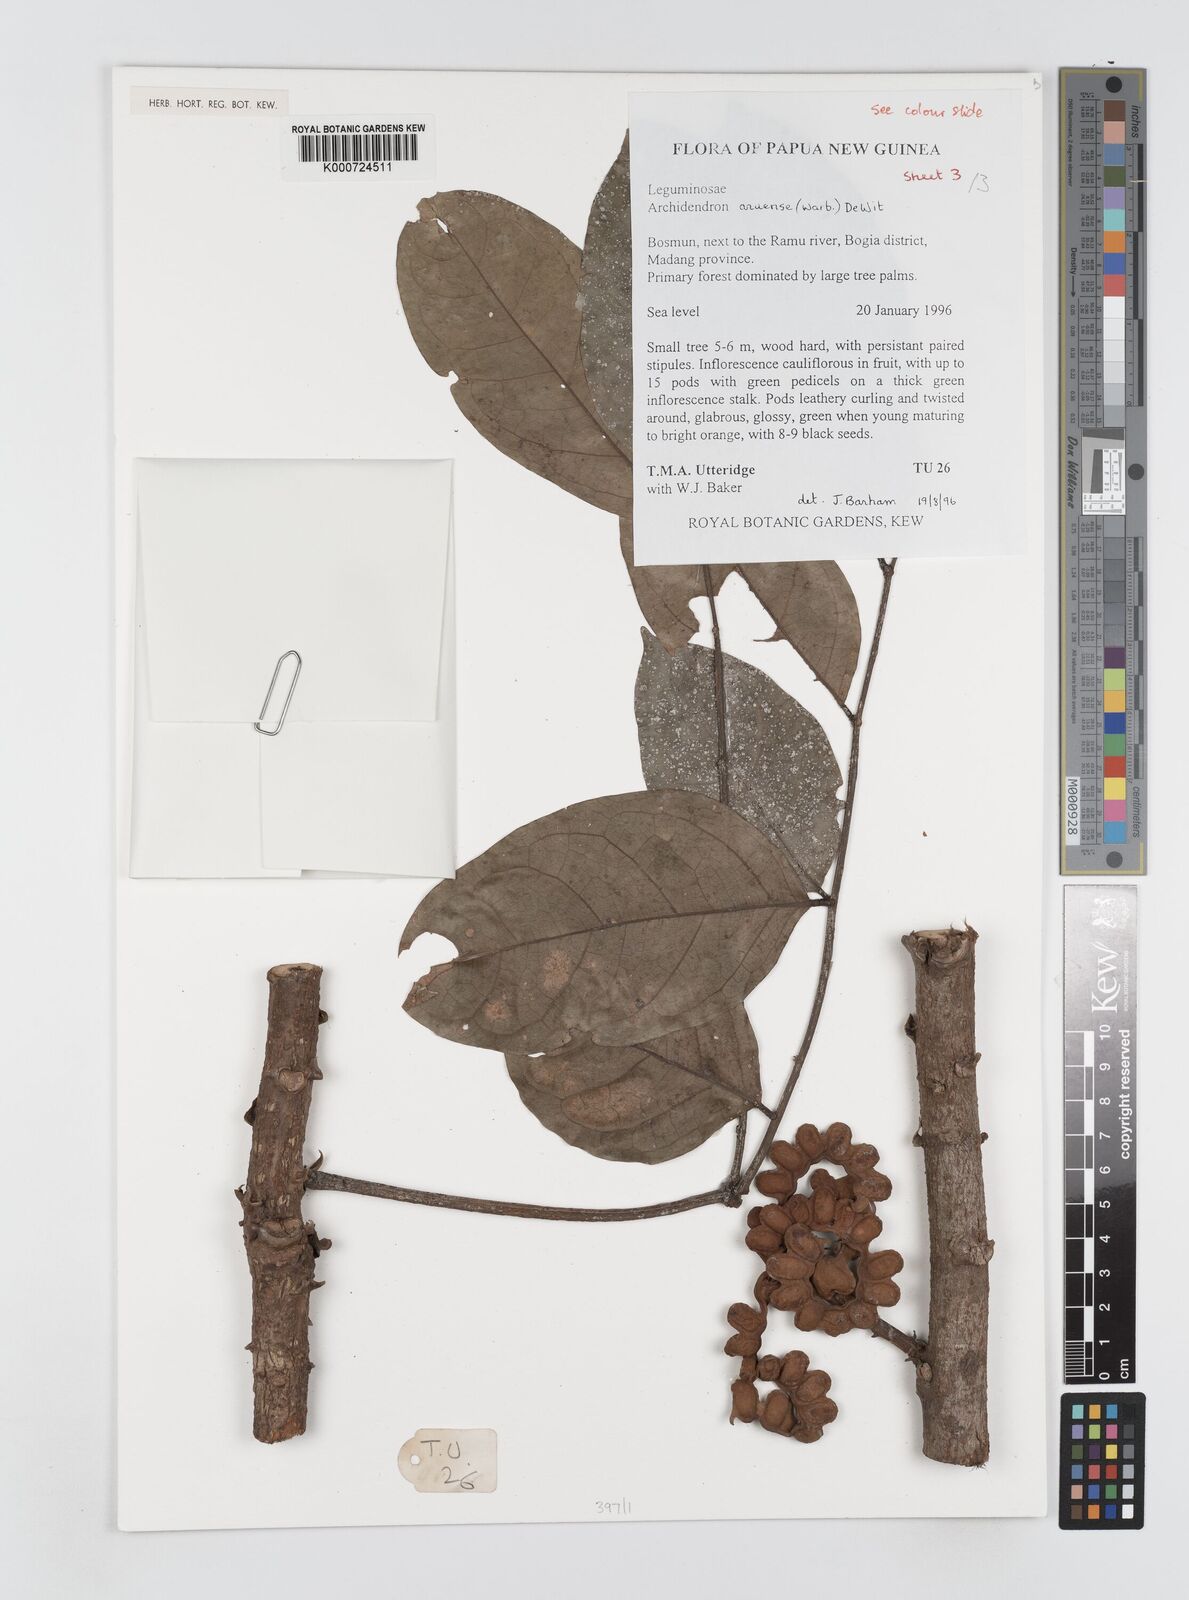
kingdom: Plantae
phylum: Tracheophyta
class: Magnoliopsida
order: Fabales
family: Fabaceae
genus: Archidendron
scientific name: Archidendron aruense
